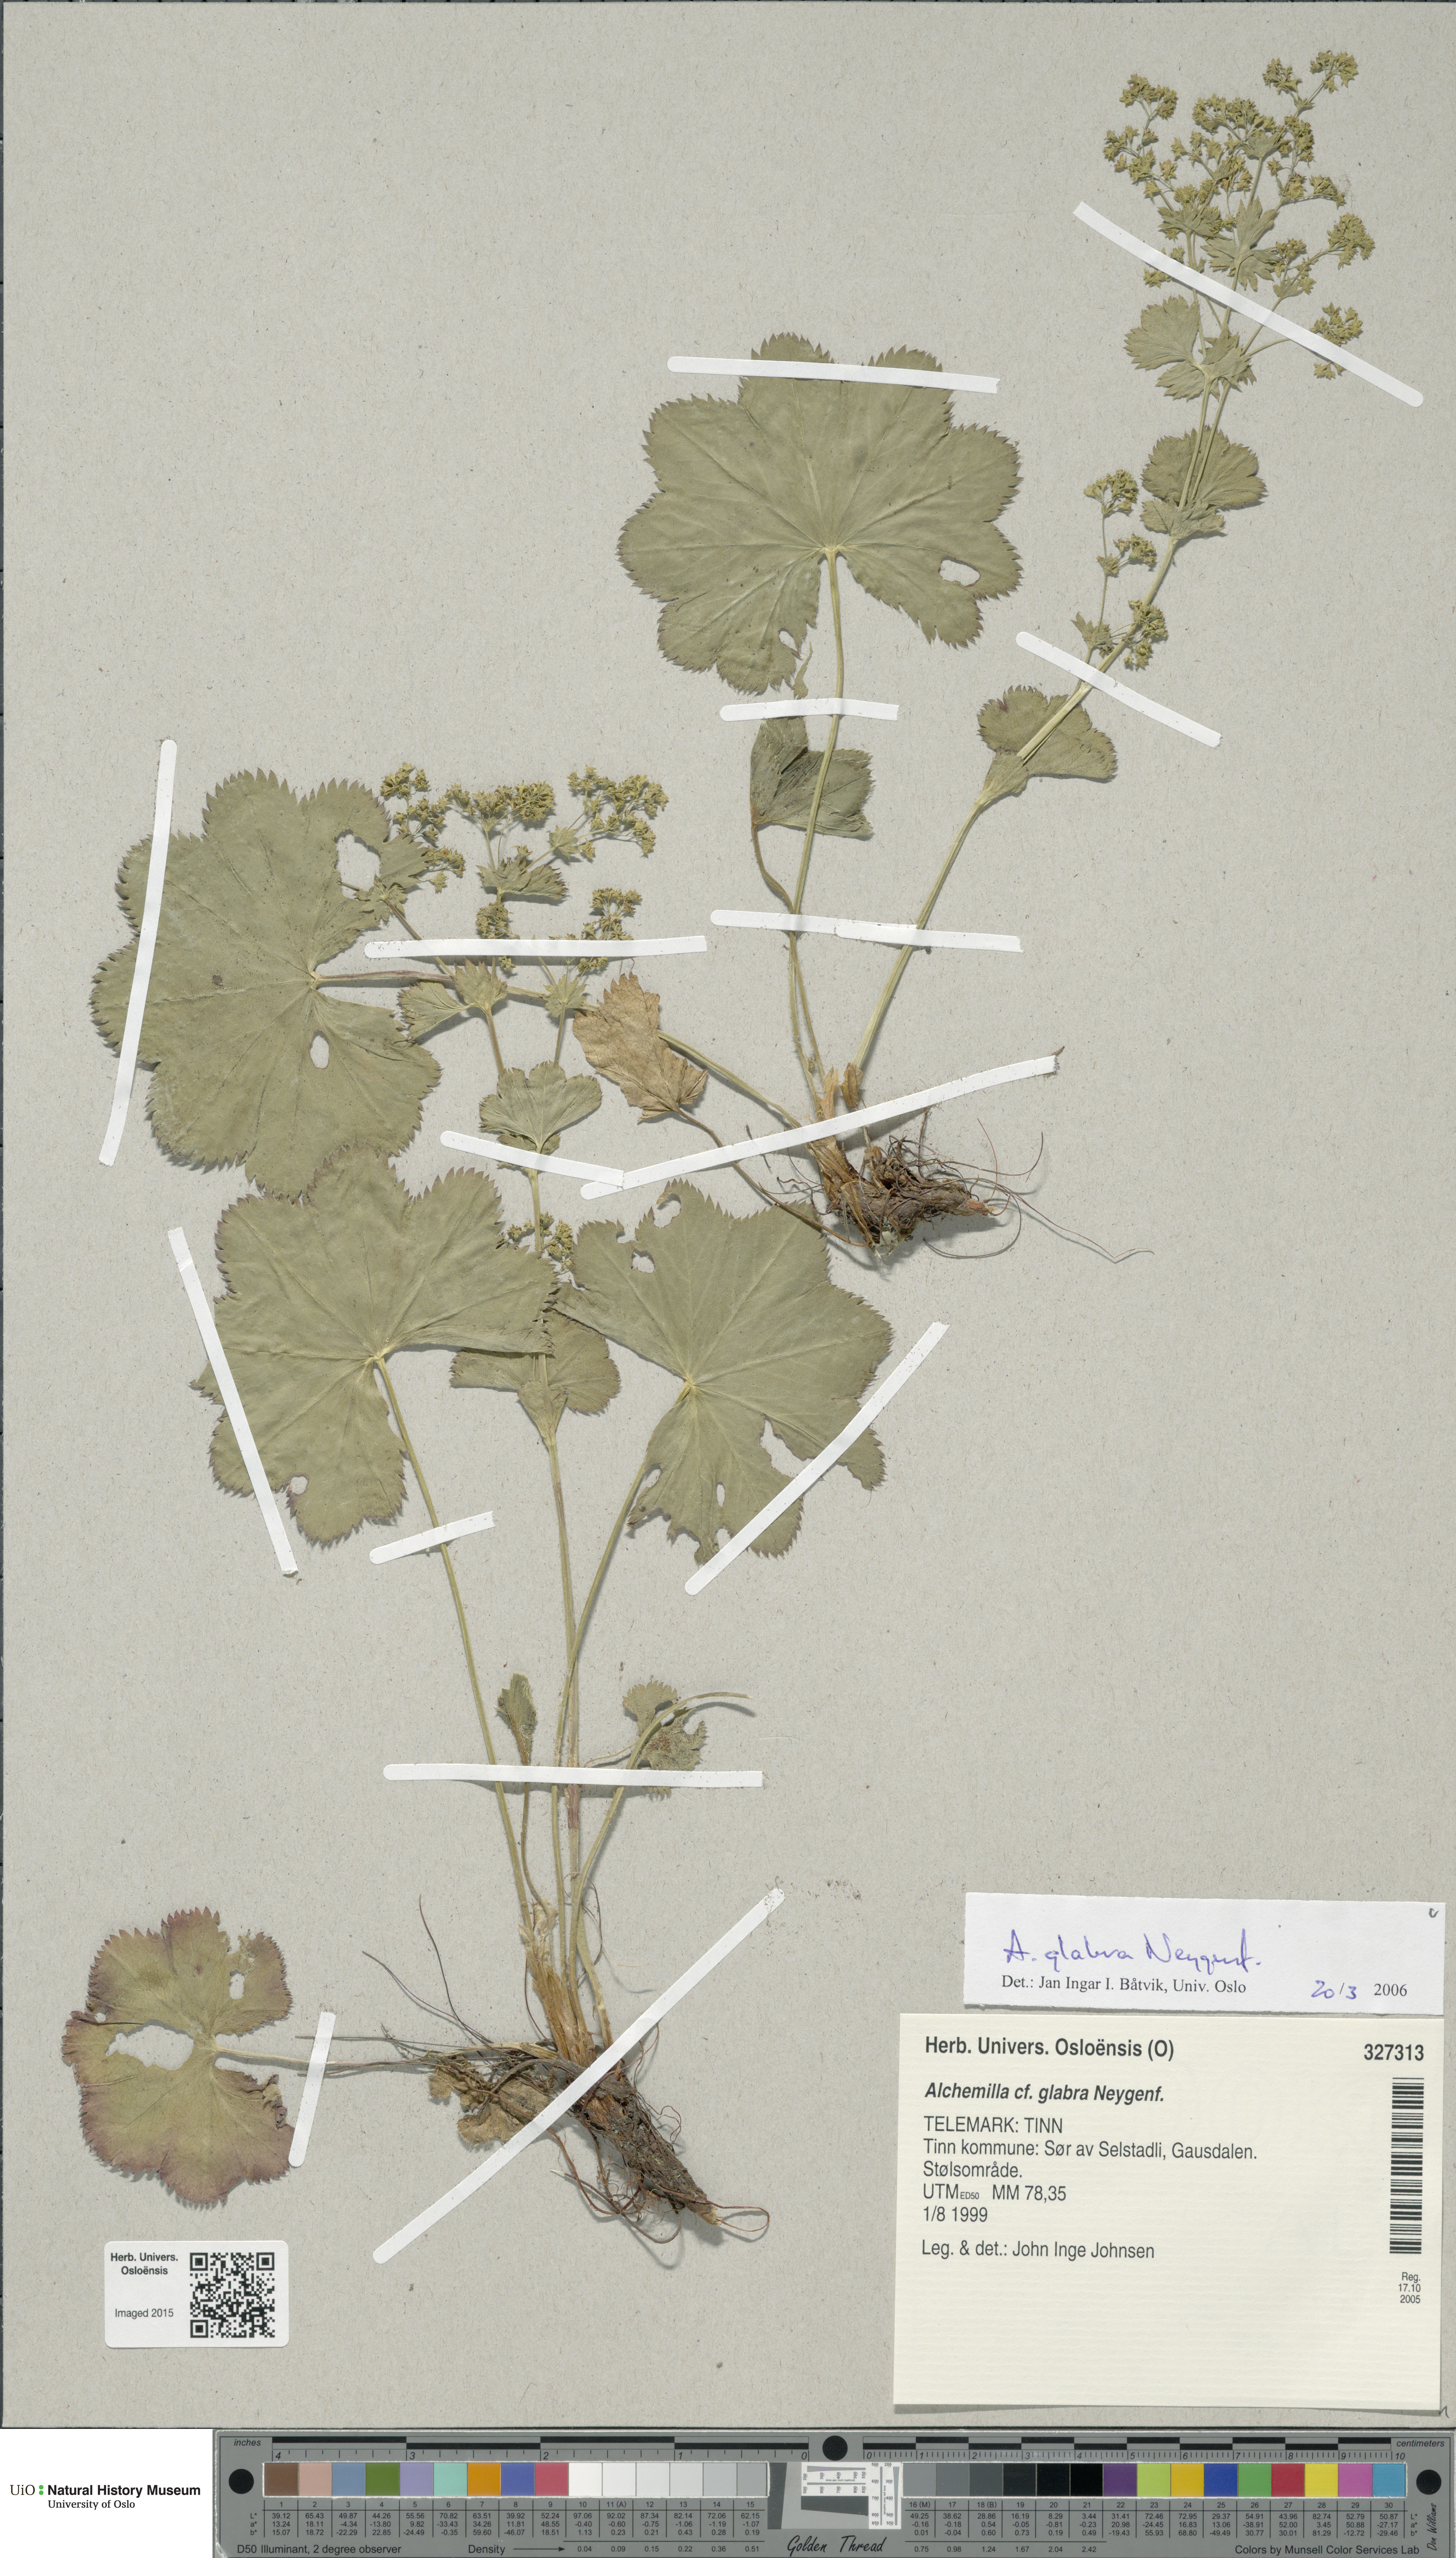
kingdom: Plantae
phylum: Tracheophyta
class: Magnoliopsida
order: Rosales
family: Rosaceae
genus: Alchemilla
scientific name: Alchemilla glabra
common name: Smooth lady's-mantle
